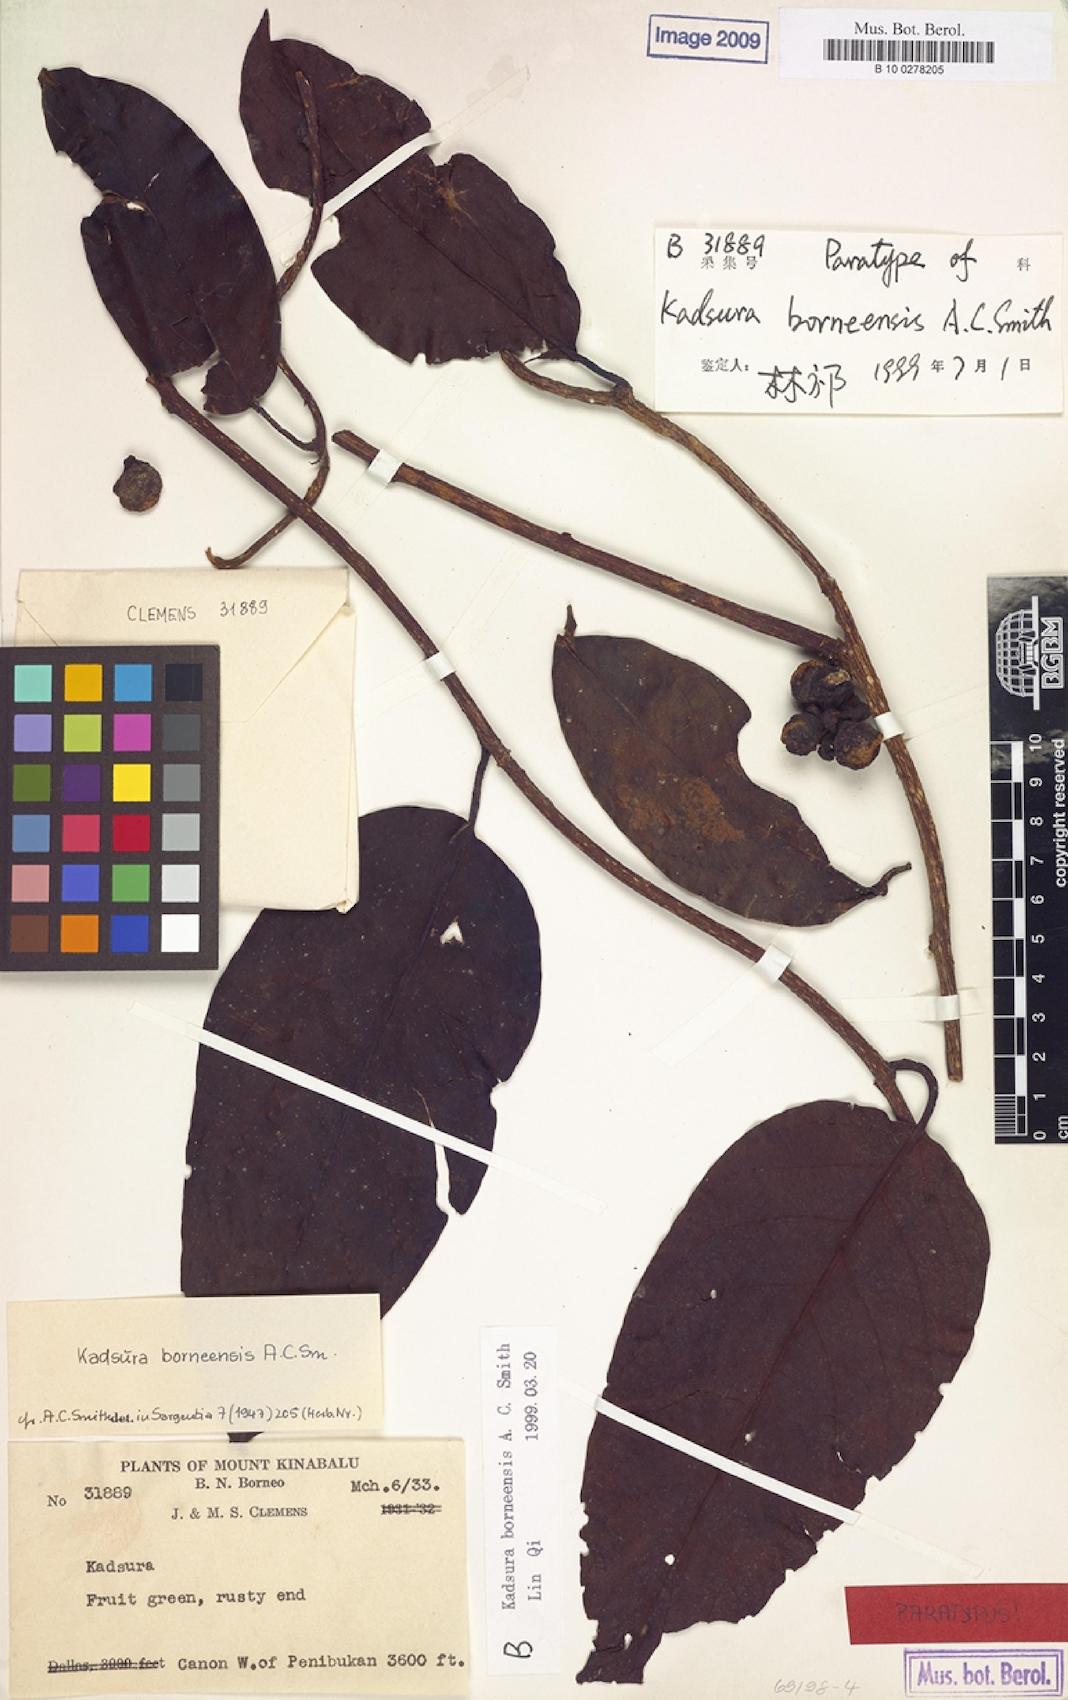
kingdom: Plantae
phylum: Tracheophyta
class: Magnoliopsida
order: Austrobaileyales
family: Schisandraceae
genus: Kadsura
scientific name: Kadsura borneensis
